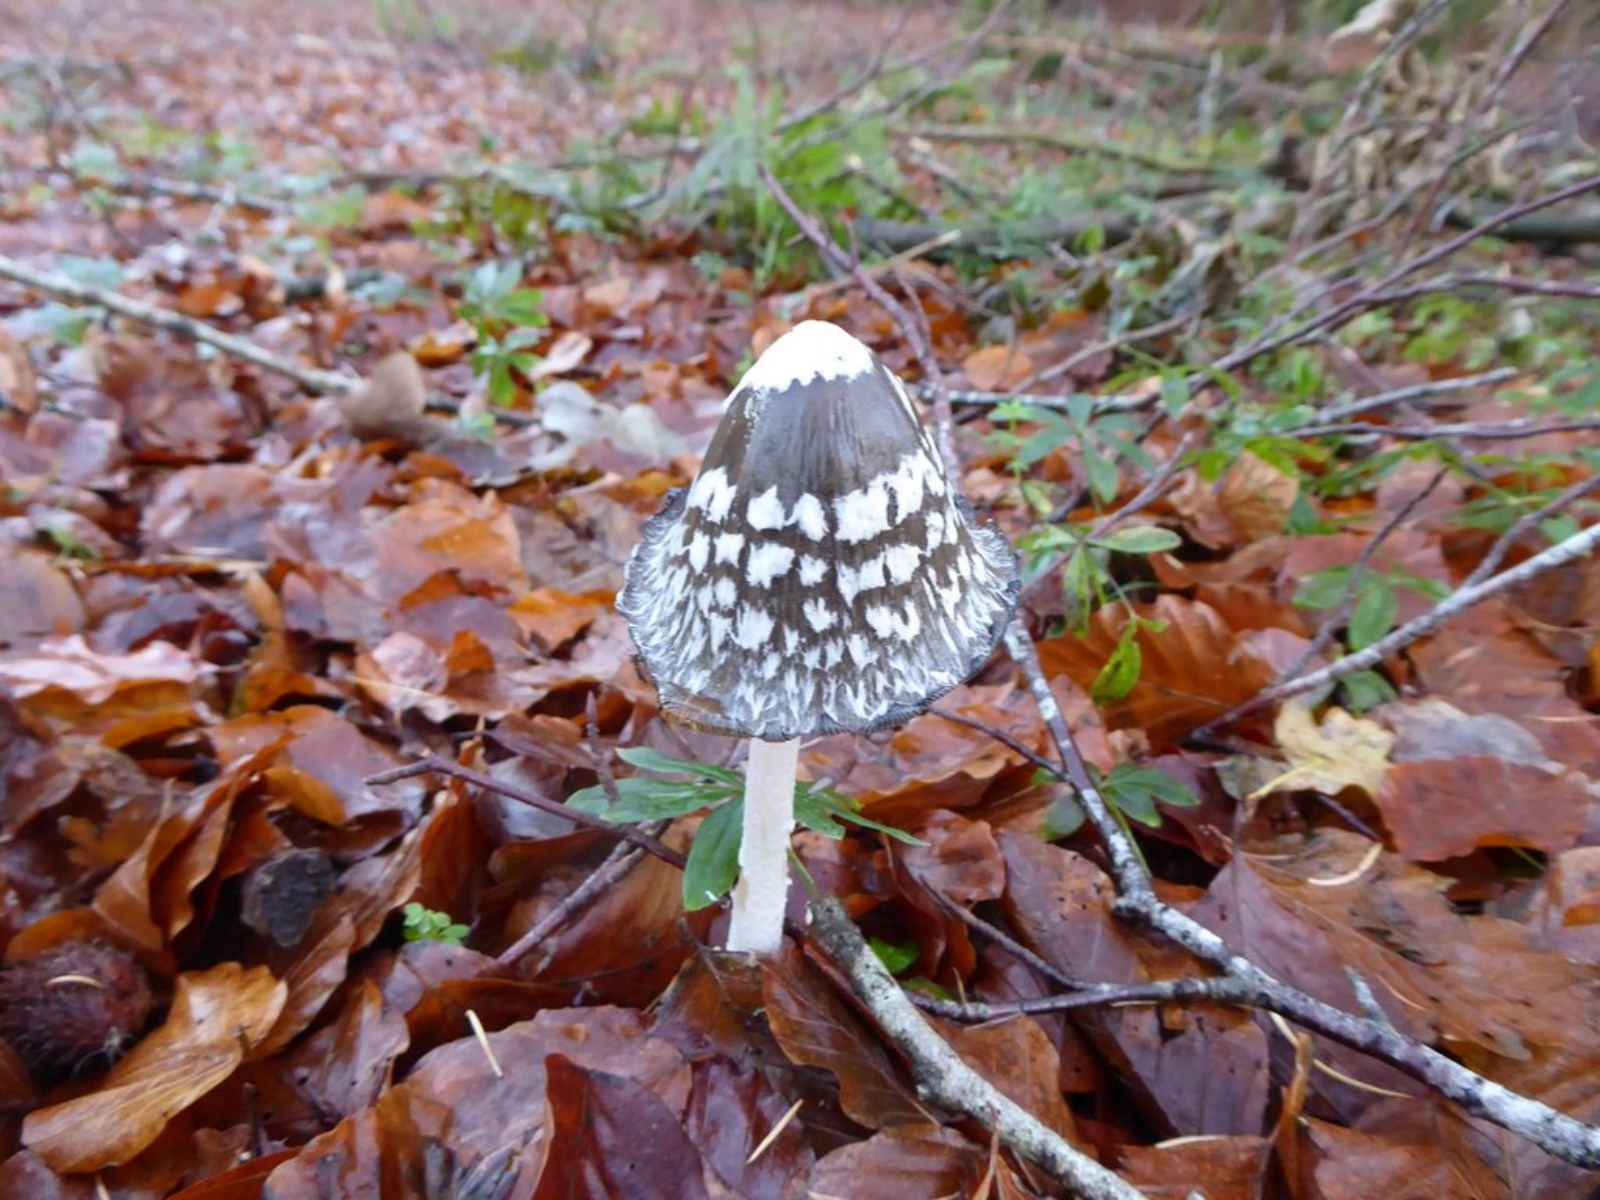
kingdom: Fungi
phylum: Basidiomycota
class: Agaricomycetes
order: Agaricales
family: Psathyrellaceae
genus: Coprinopsis
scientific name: Coprinopsis picacea
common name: skade-blækhat
